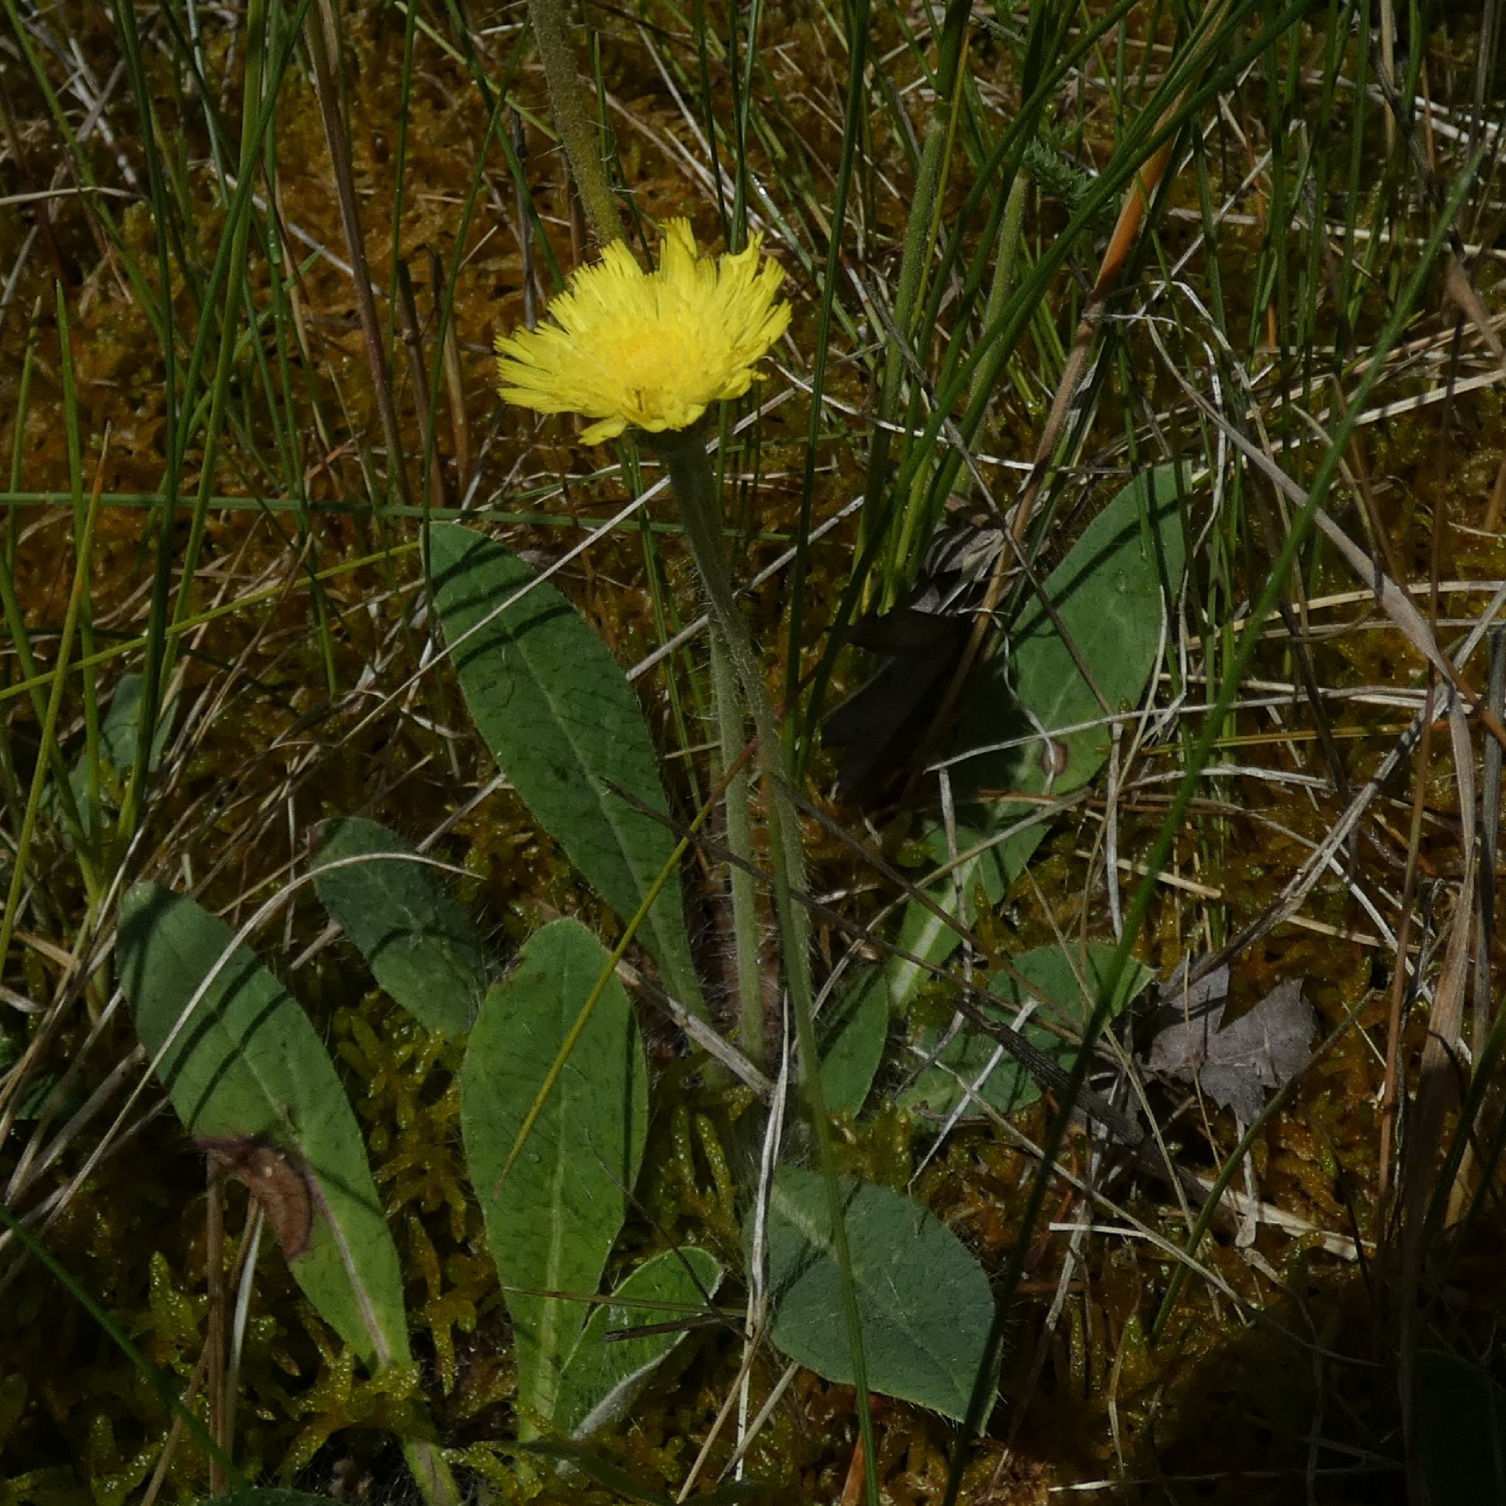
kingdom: Plantae
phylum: Tracheophyta
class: Magnoliopsida
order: Asterales
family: Asteraceae
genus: Pilosella
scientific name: Pilosella officinarum
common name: Håret høgeurt
